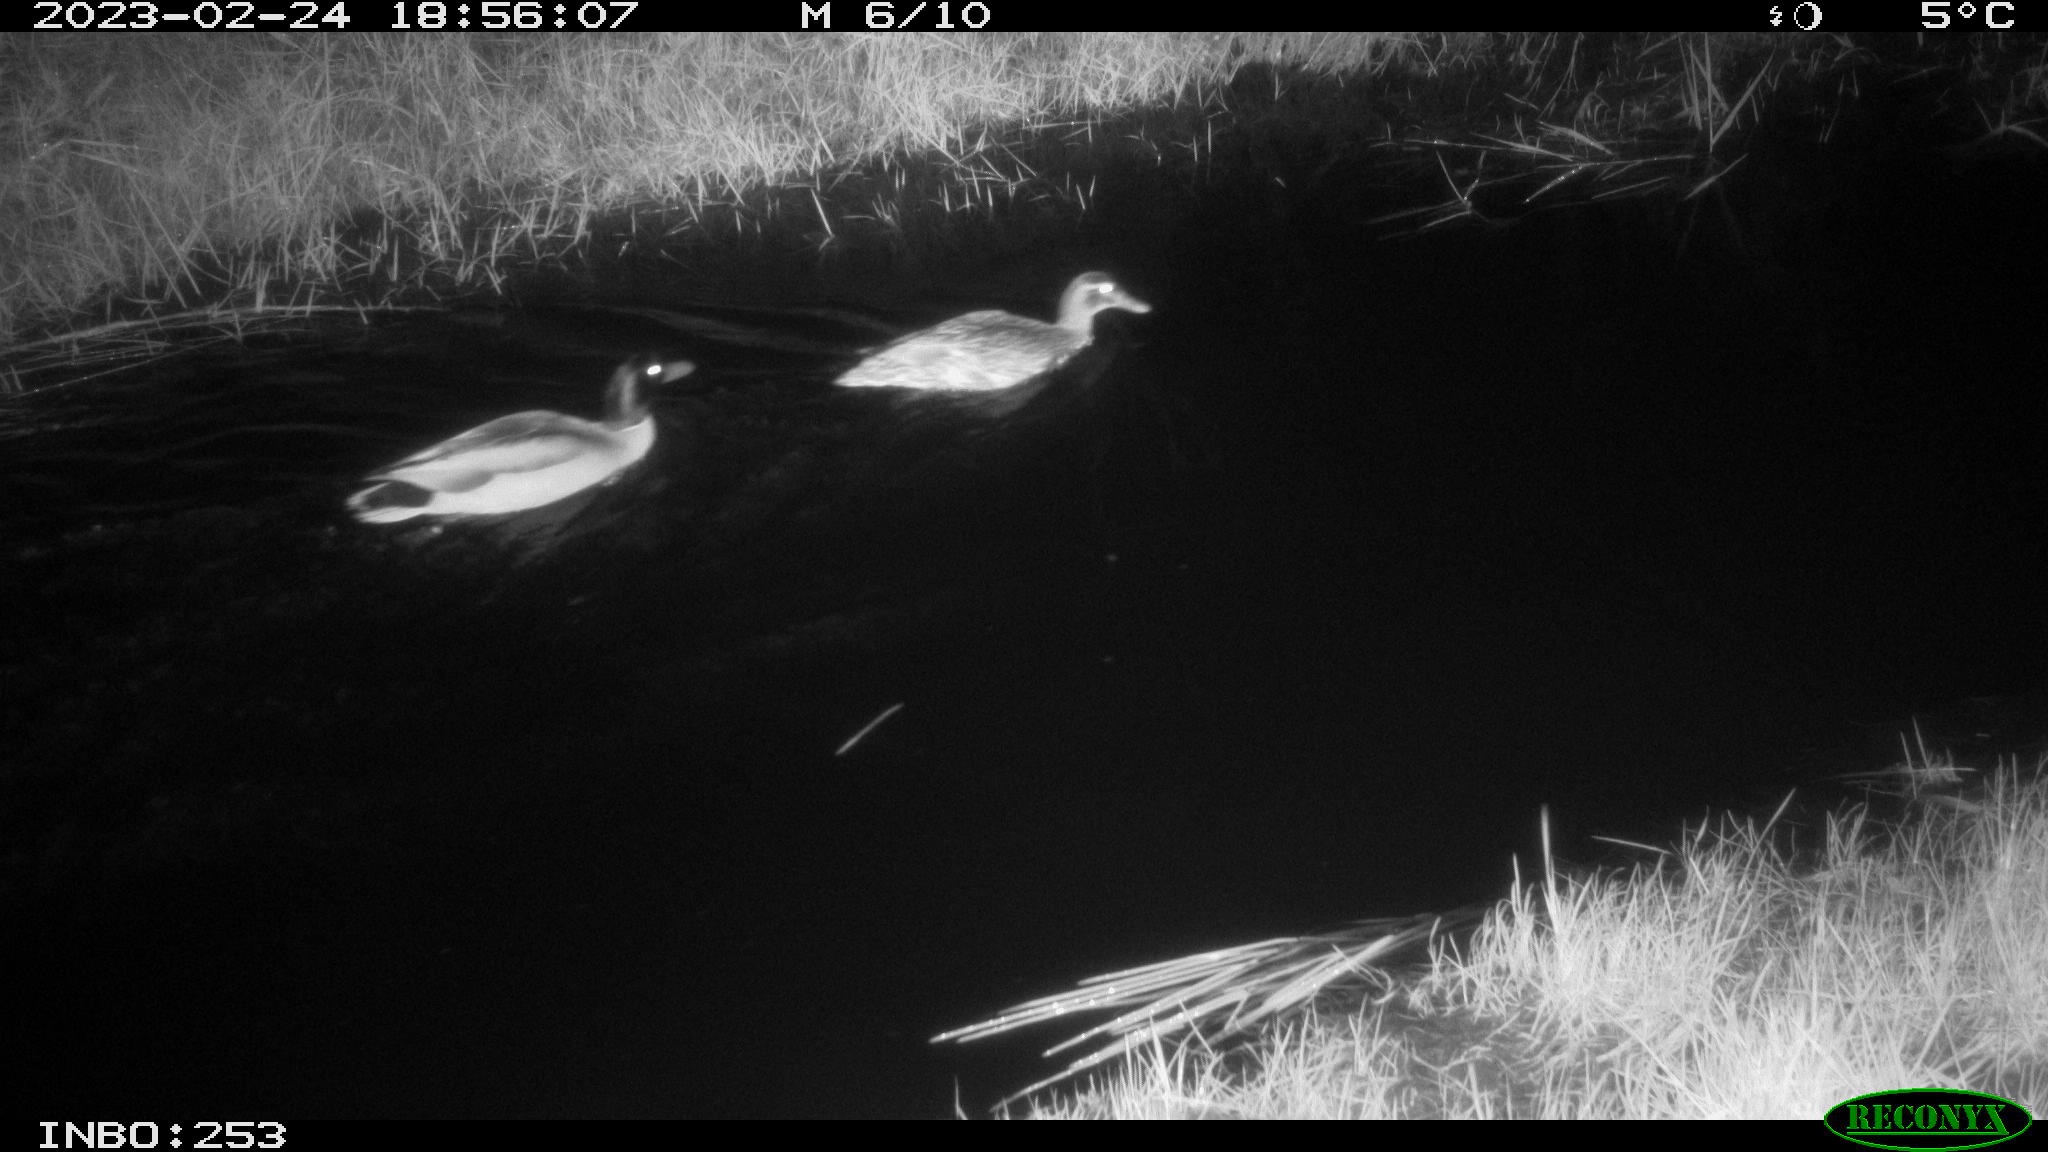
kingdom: Animalia
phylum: Chordata
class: Aves
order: Anseriformes
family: Anatidae
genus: Anas
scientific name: Anas
